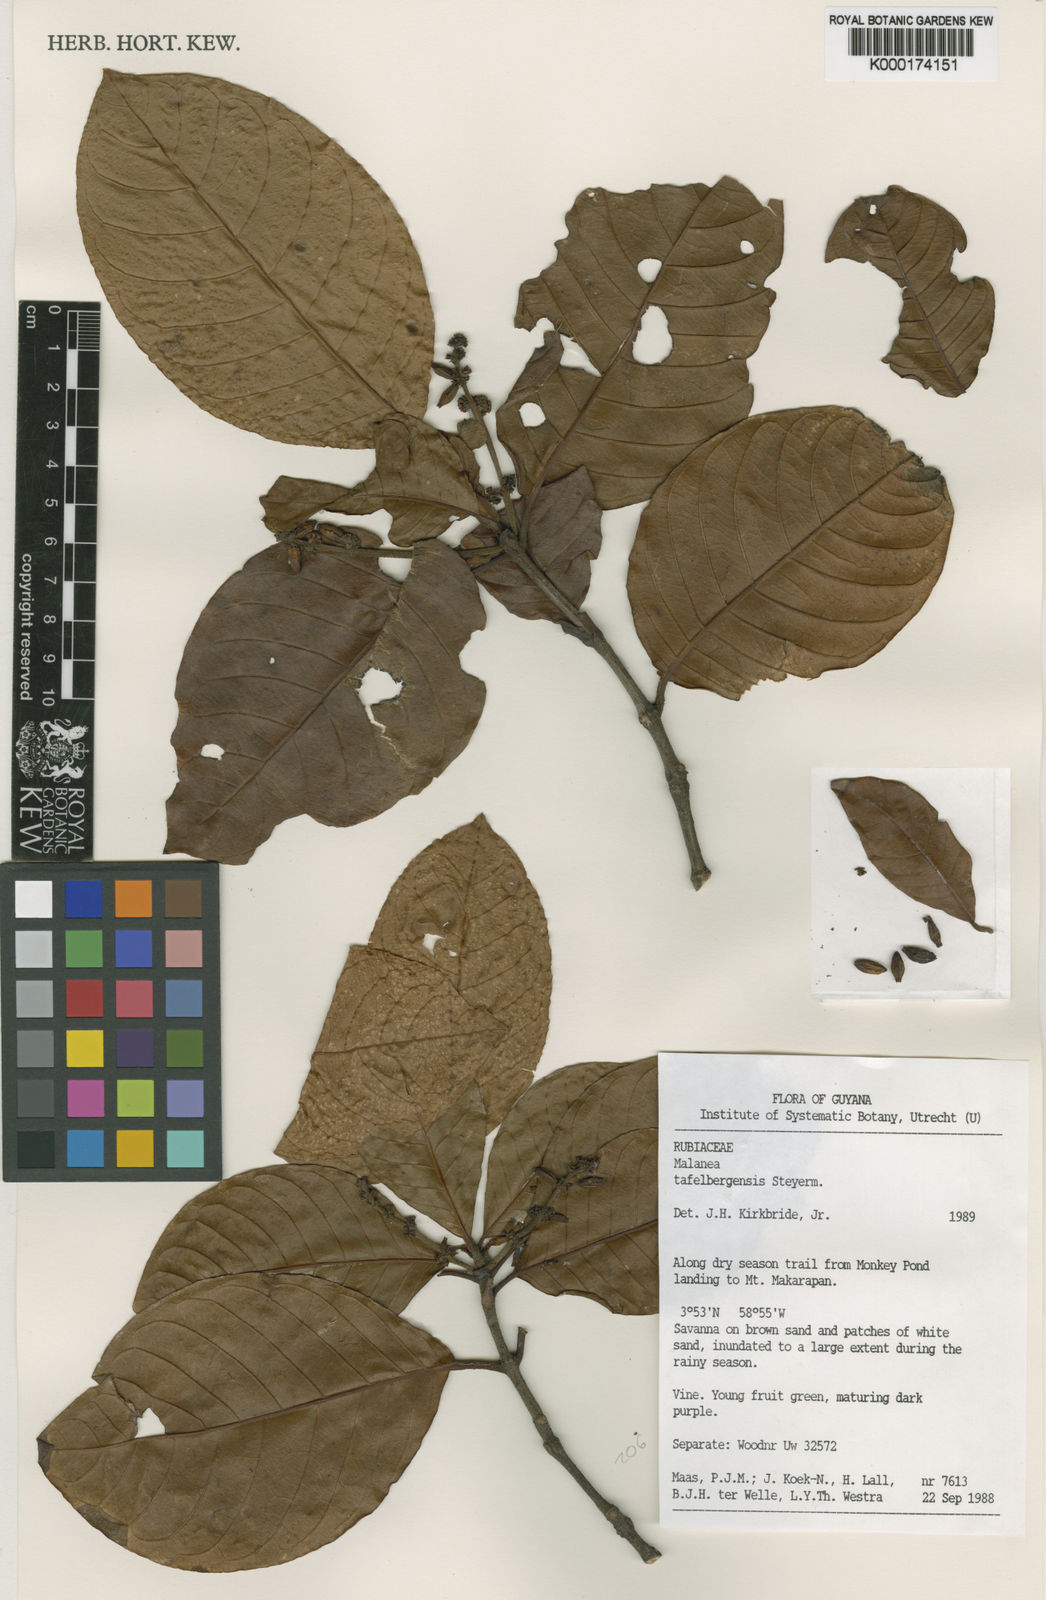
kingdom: Plantae
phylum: Tracheophyta
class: Magnoliopsida
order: Gentianales
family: Rubiaceae
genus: Malanea
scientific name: Malanea tafelbergensis
